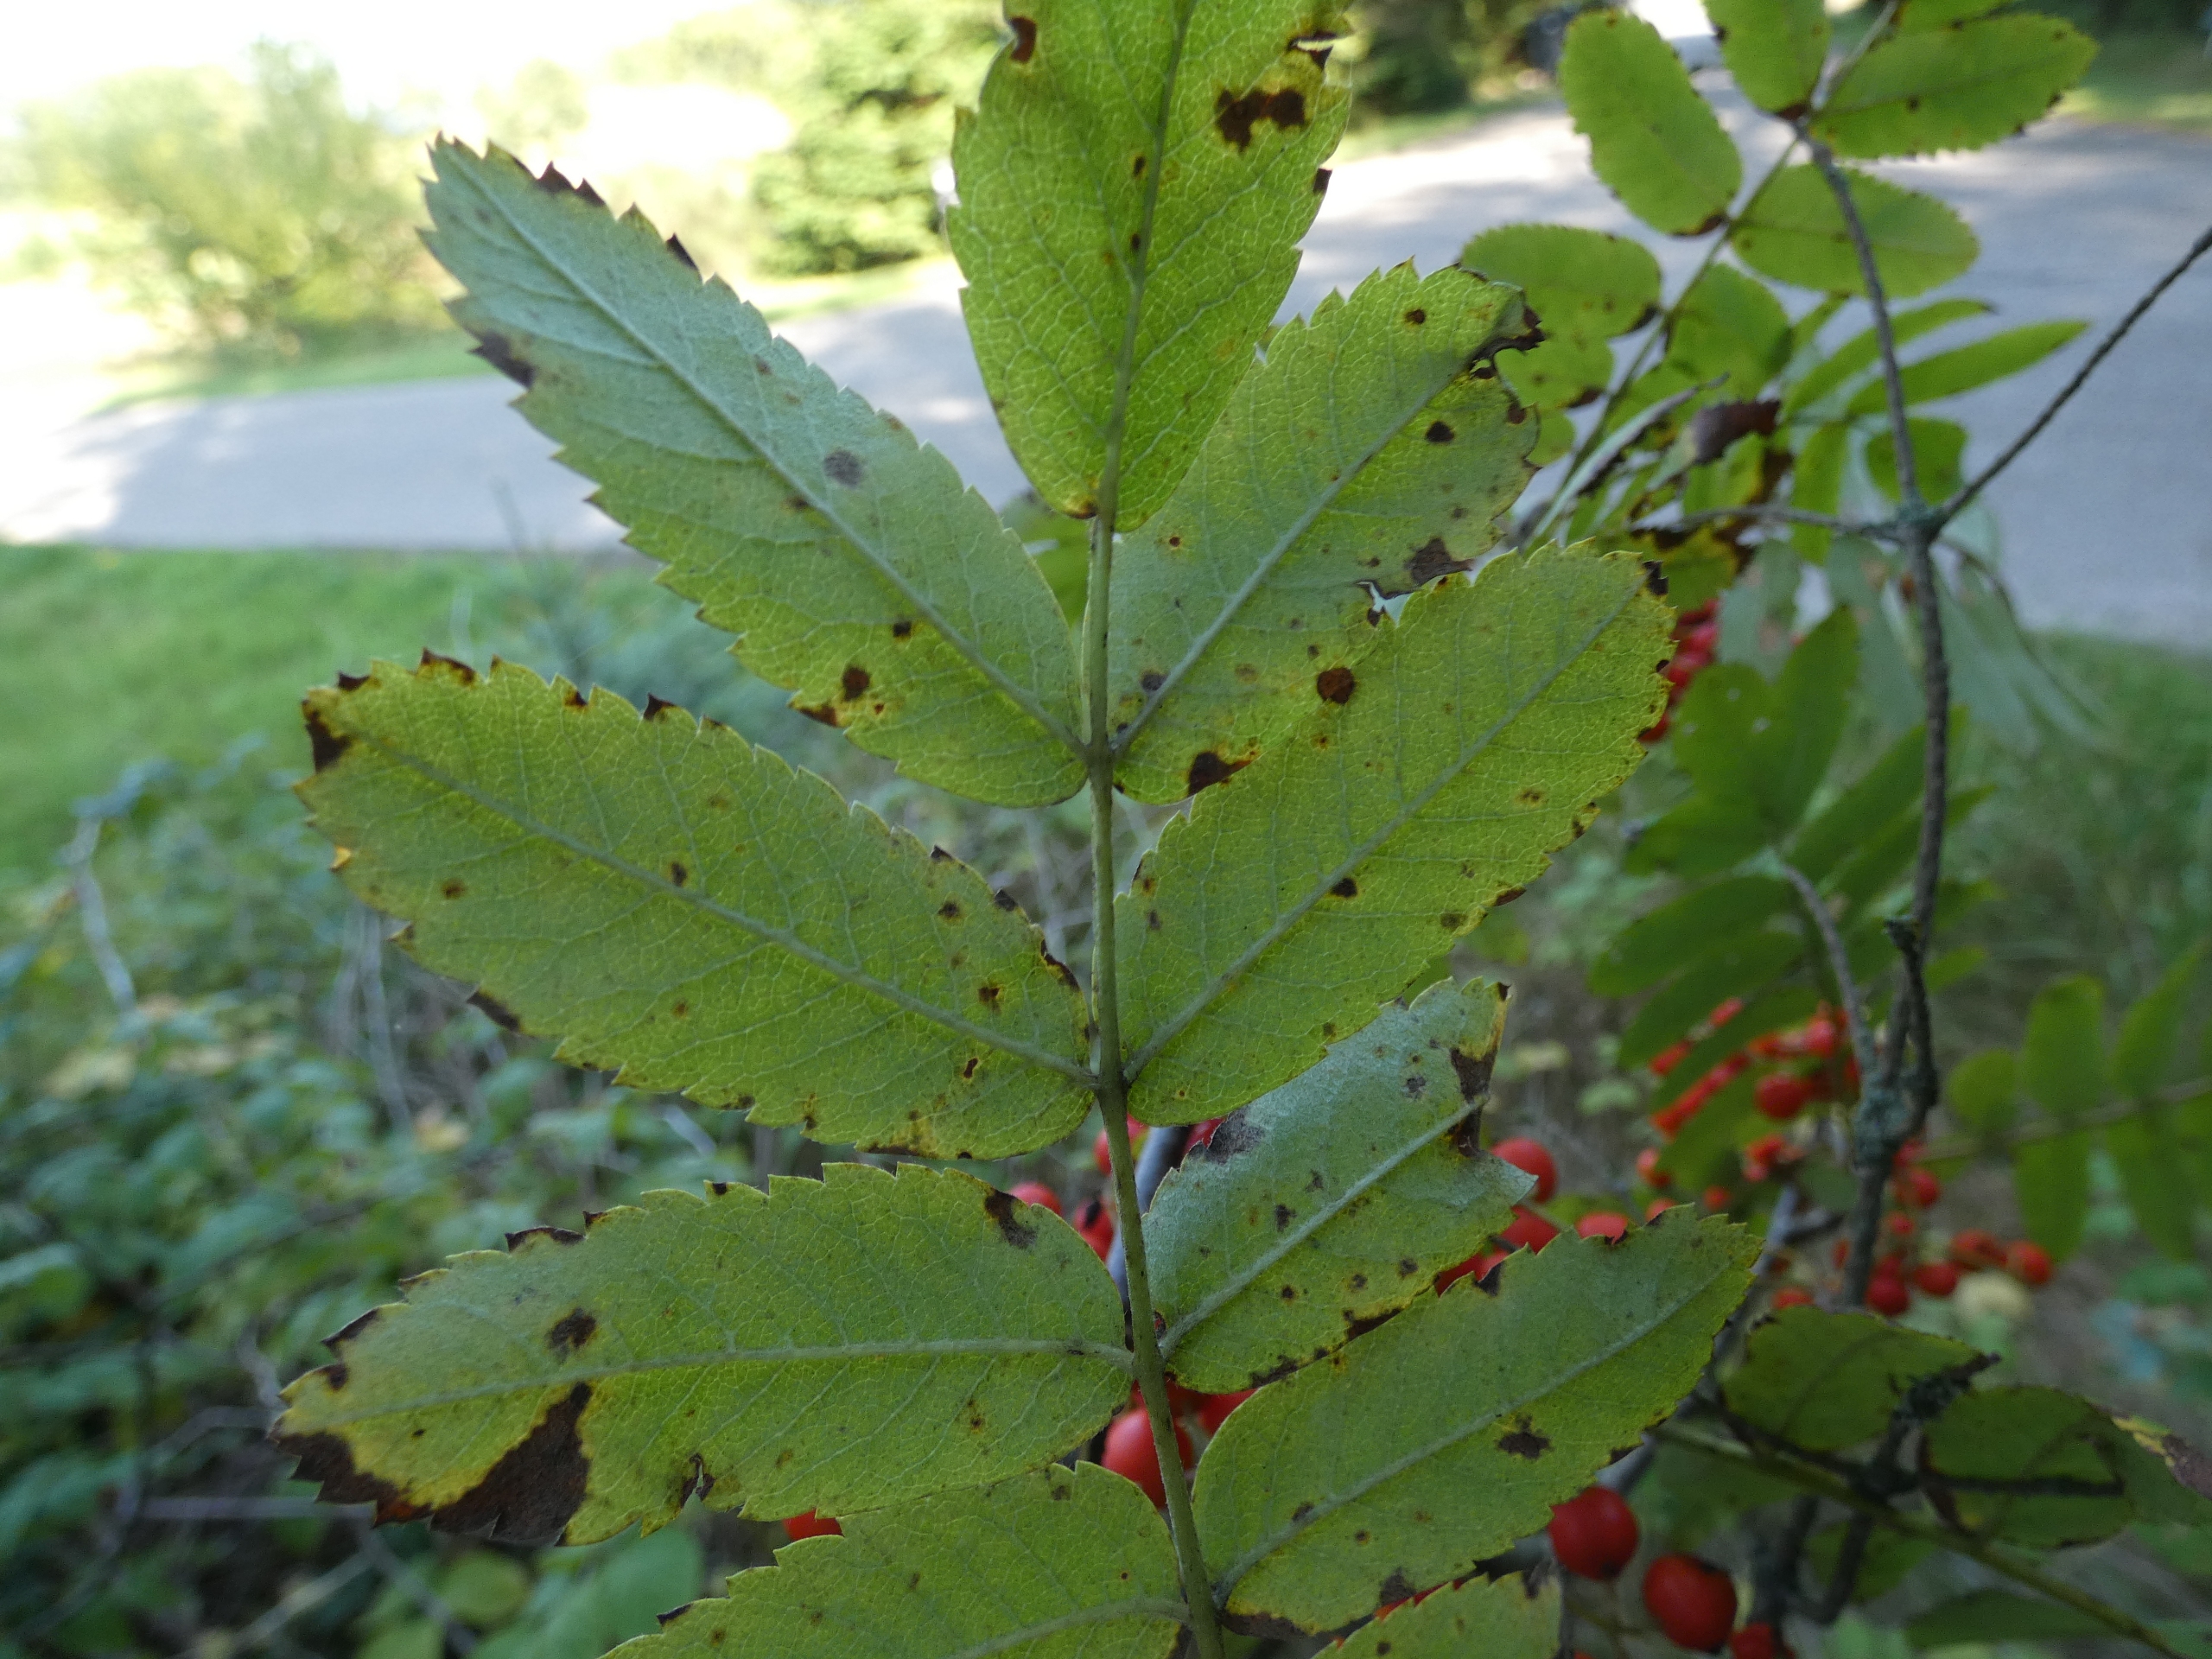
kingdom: Plantae
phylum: Tracheophyta
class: Magnoliopsida
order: Rosales
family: Rosaceae
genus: Sorbus
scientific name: Sorbus aucuparia
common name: Almindelig røn
